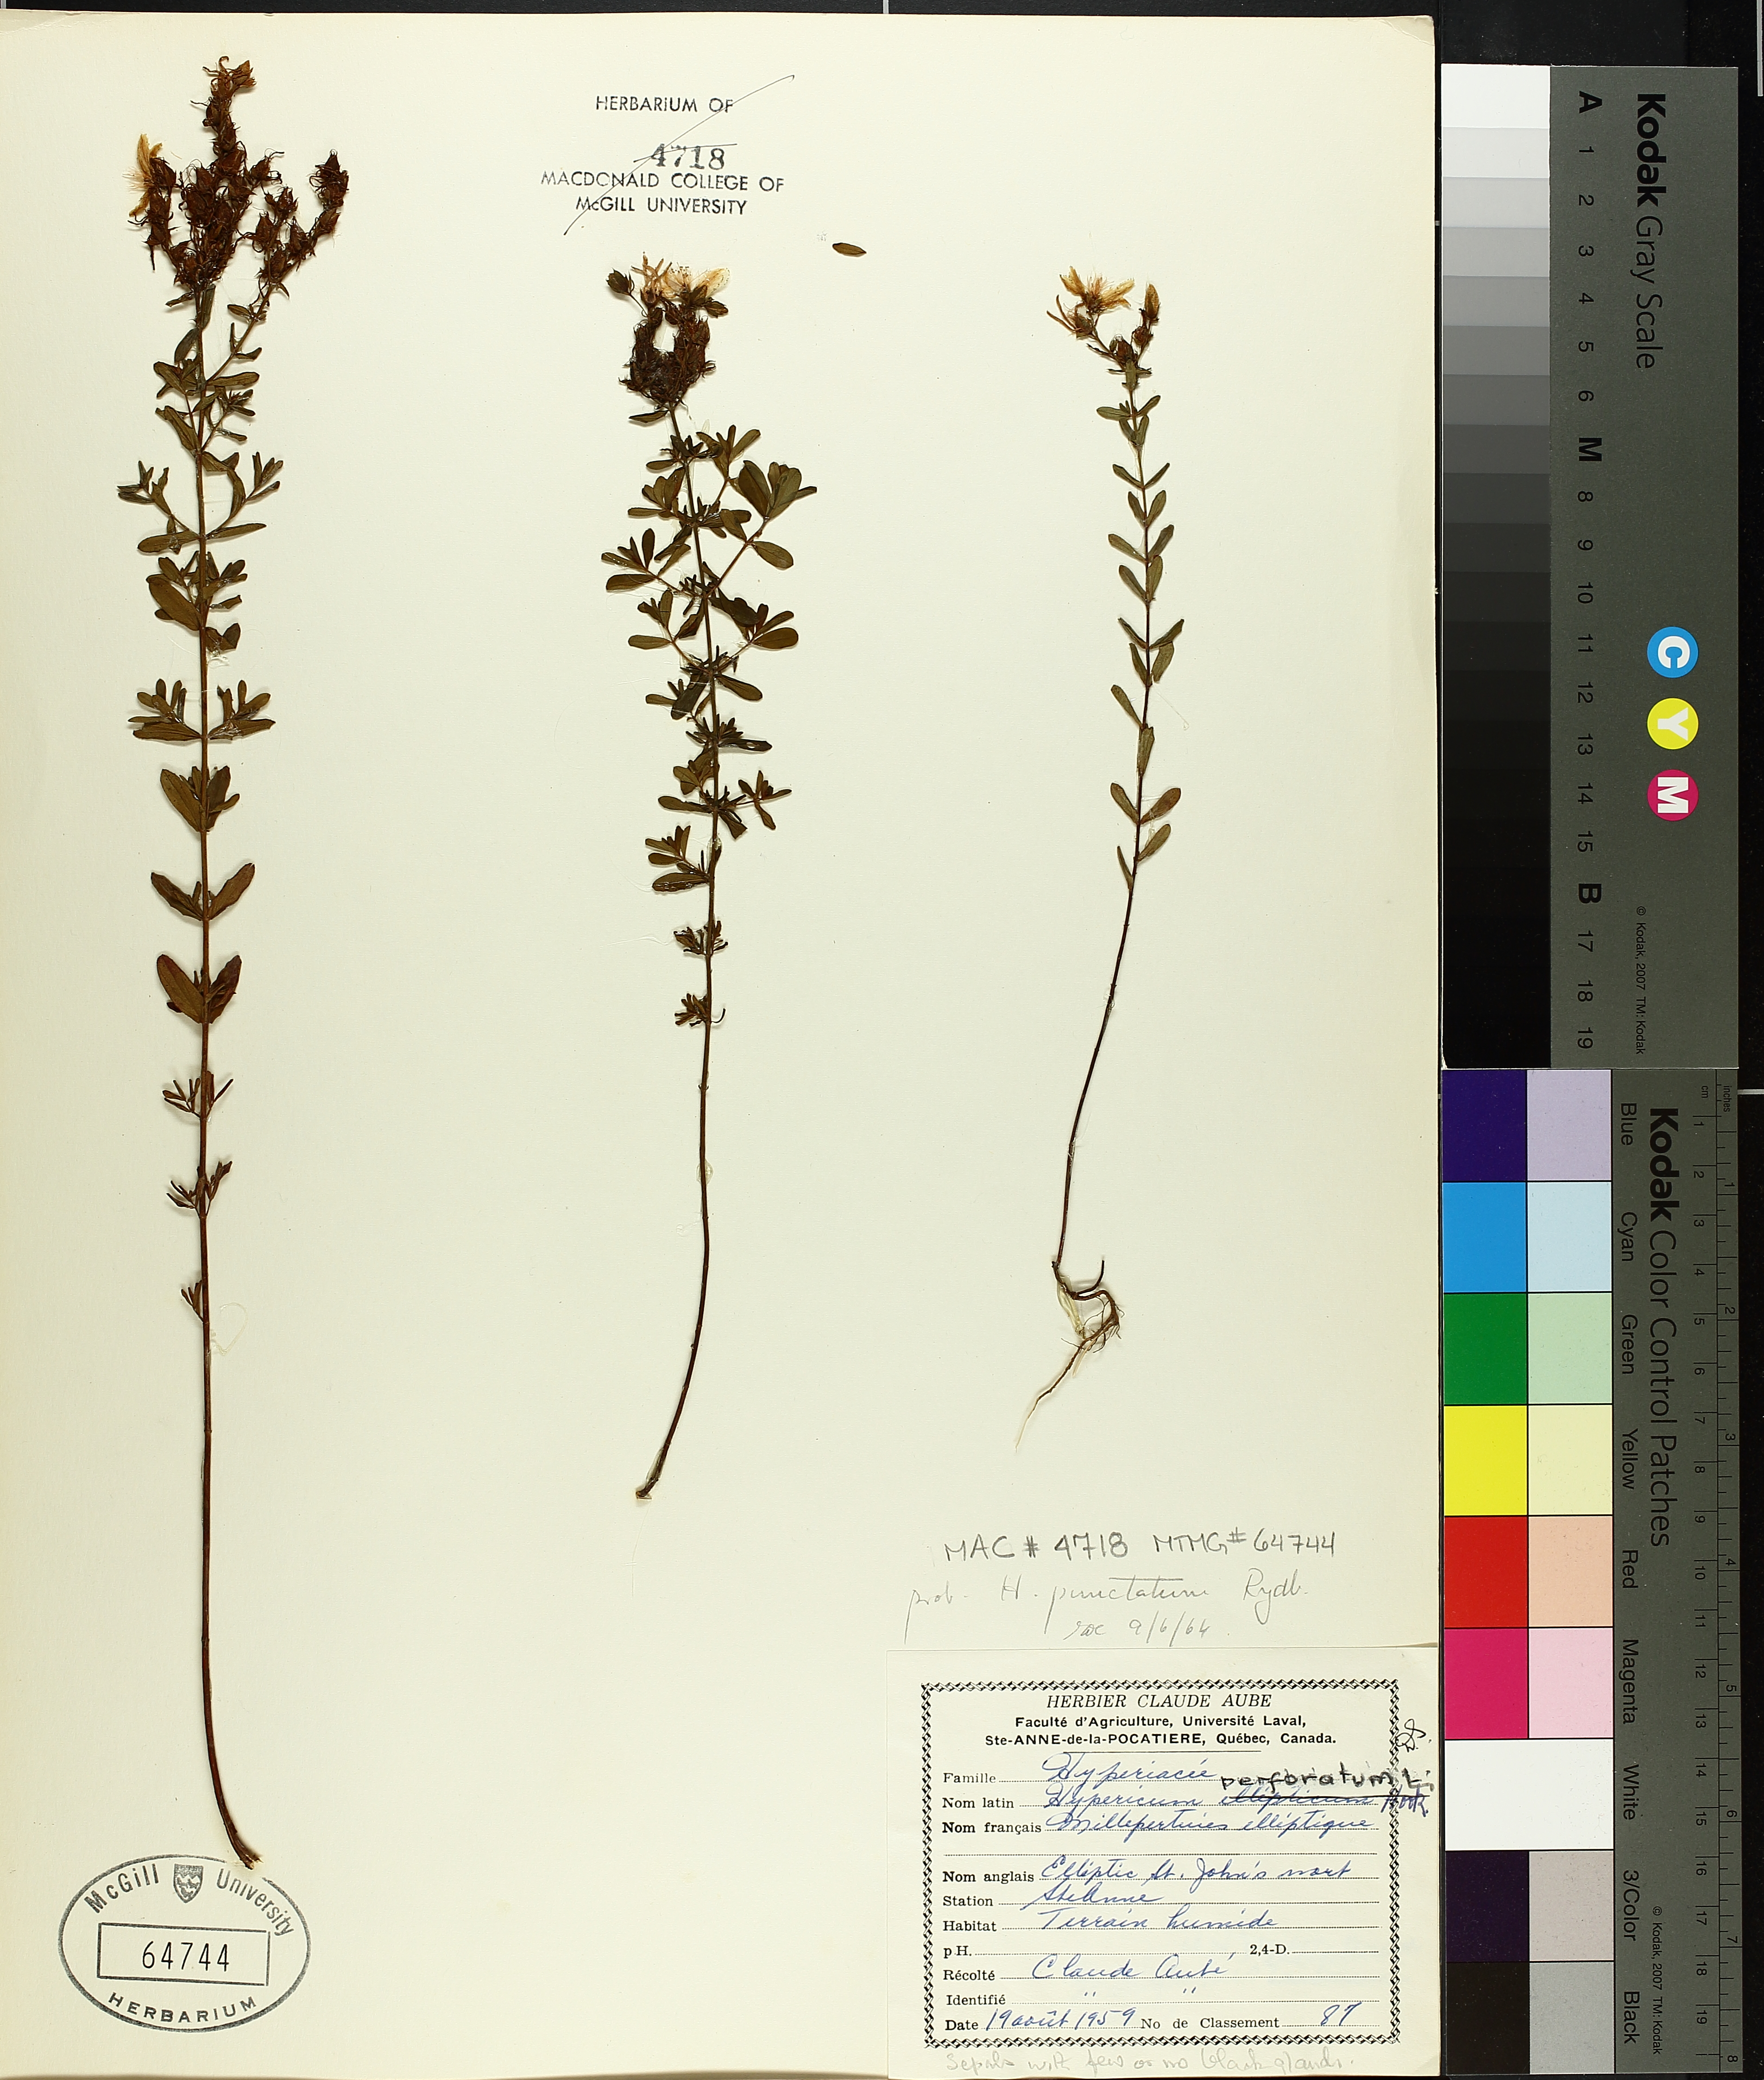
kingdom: Plantae
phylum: Tracheophyta
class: Magnoliopsida
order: Malpighiales
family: Hypericaceae
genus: Hypericum
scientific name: Hypericum punctatum
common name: Spotted st. john's-wort
